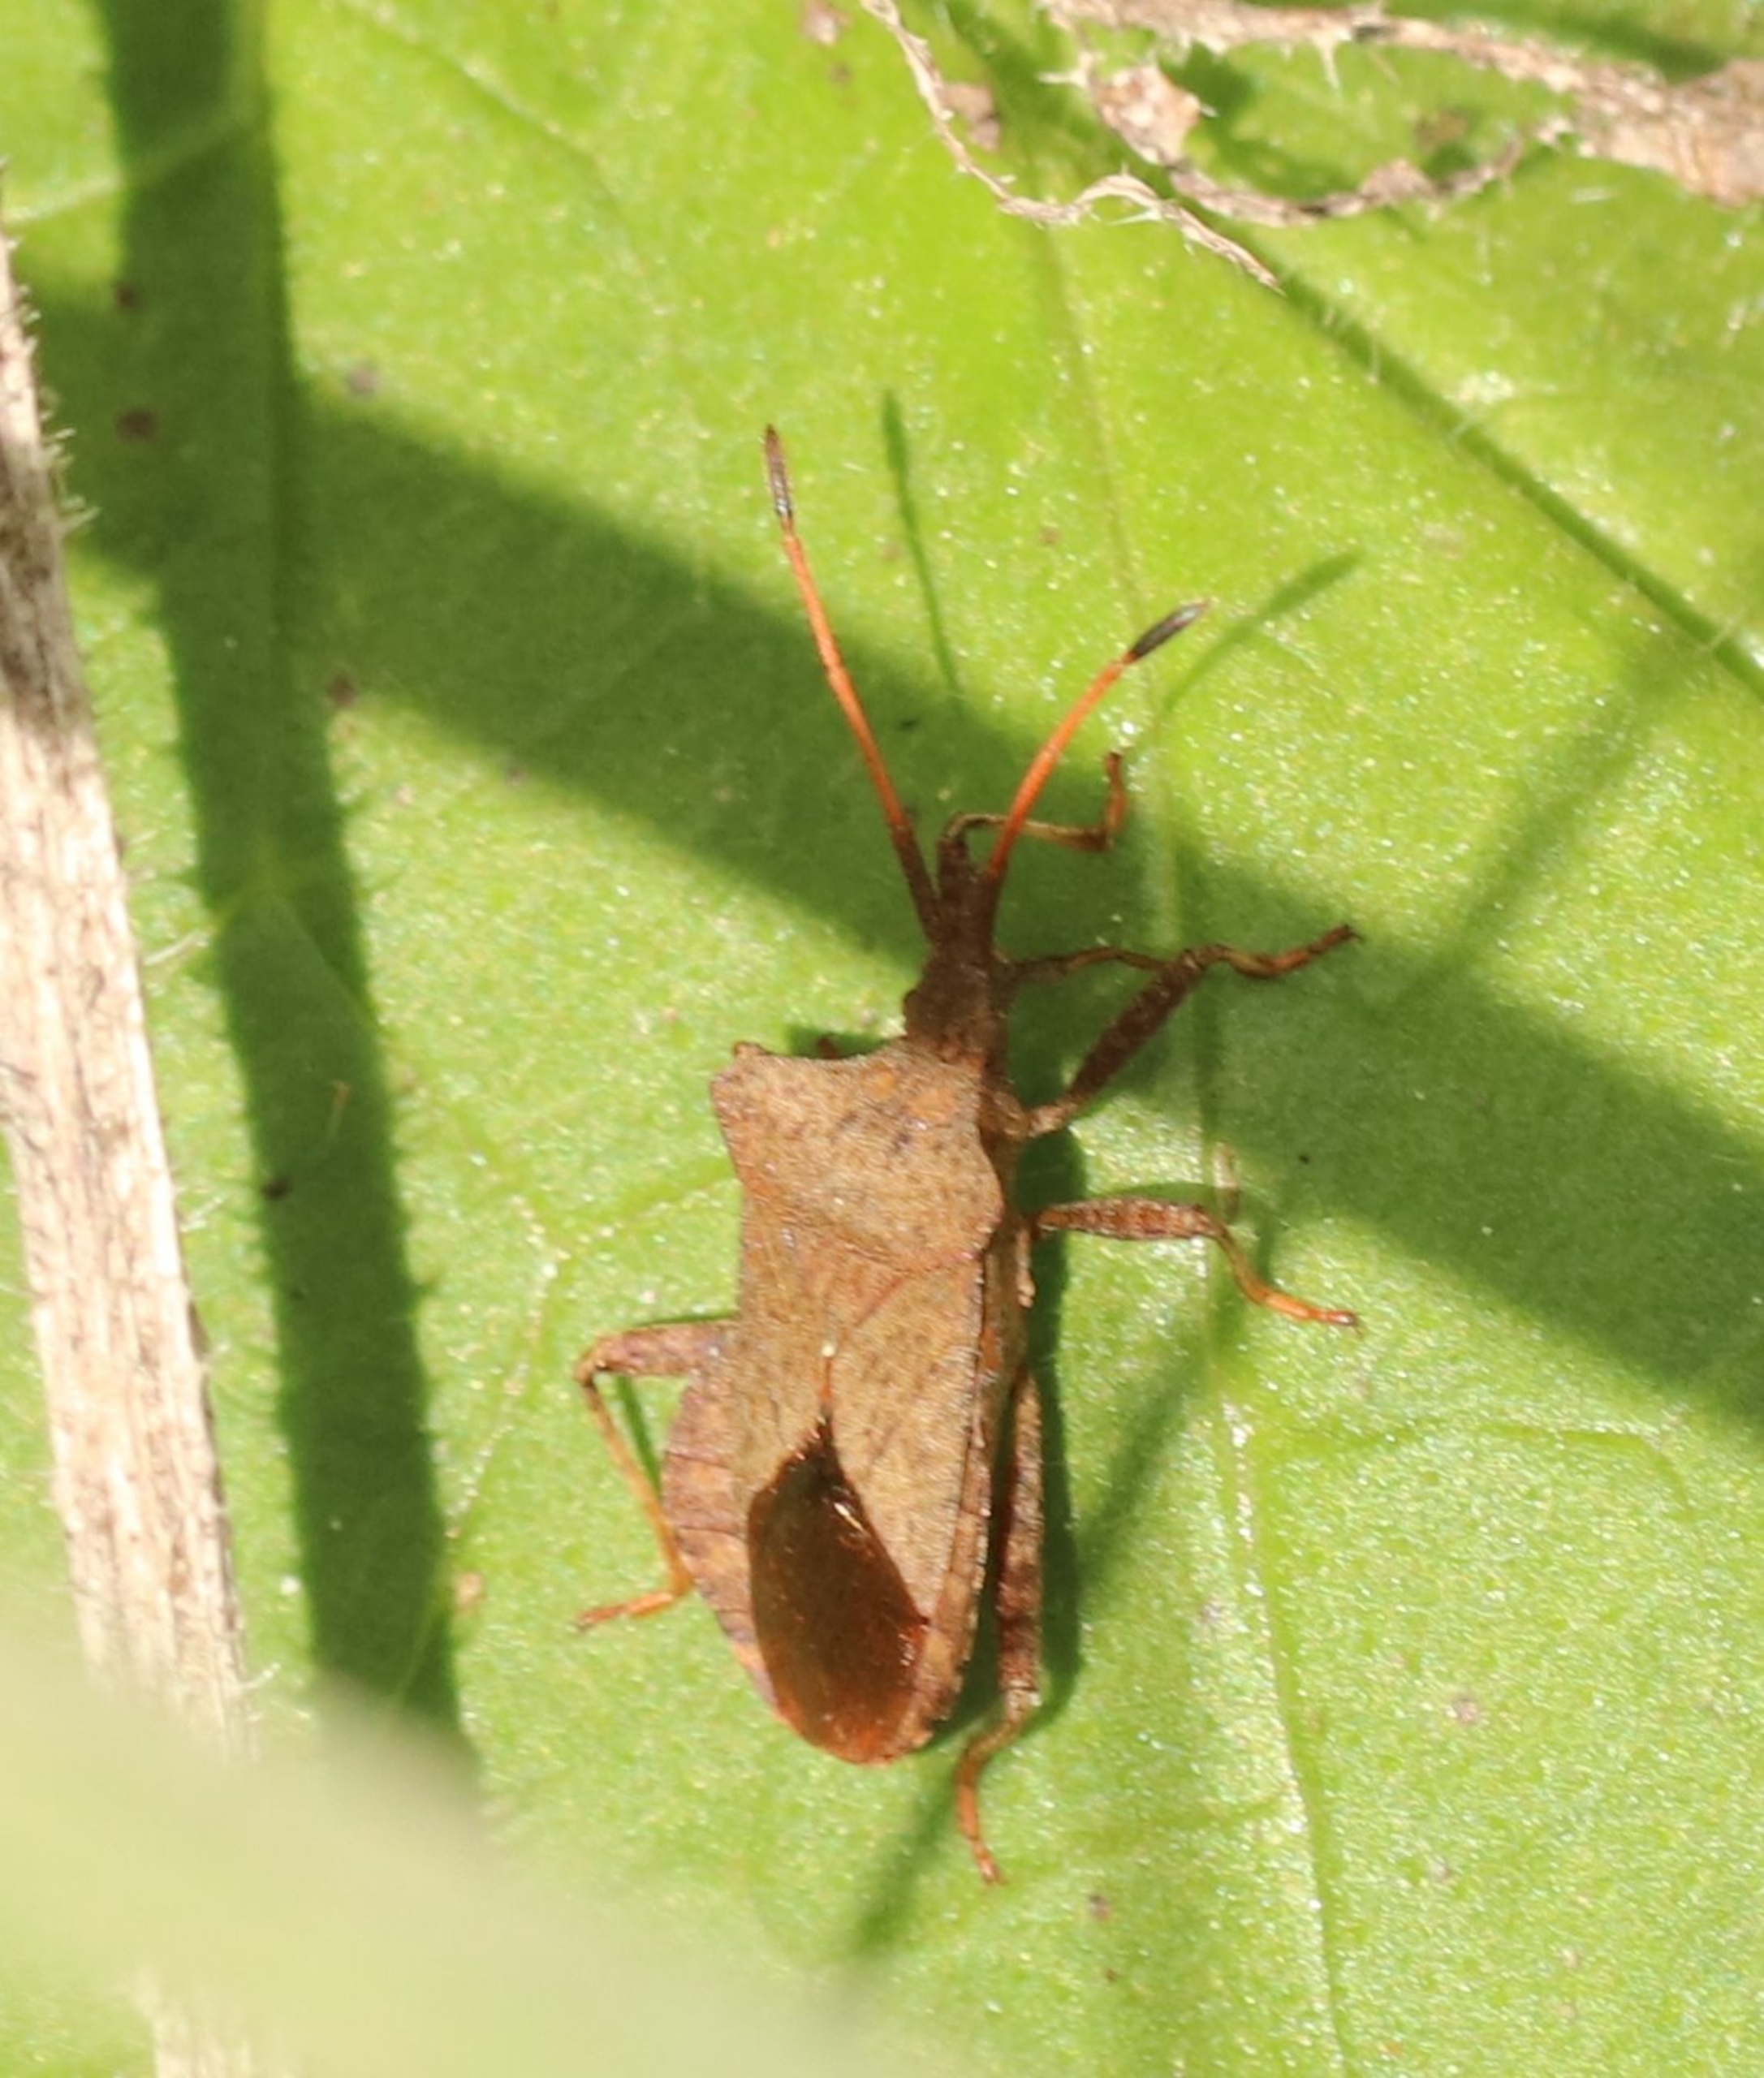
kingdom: Animalia
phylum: Arthropoda
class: Insecta
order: Hemiptera
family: Coreidae
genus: Coreus
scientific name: Coreus marginatus
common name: Skræppetæge
